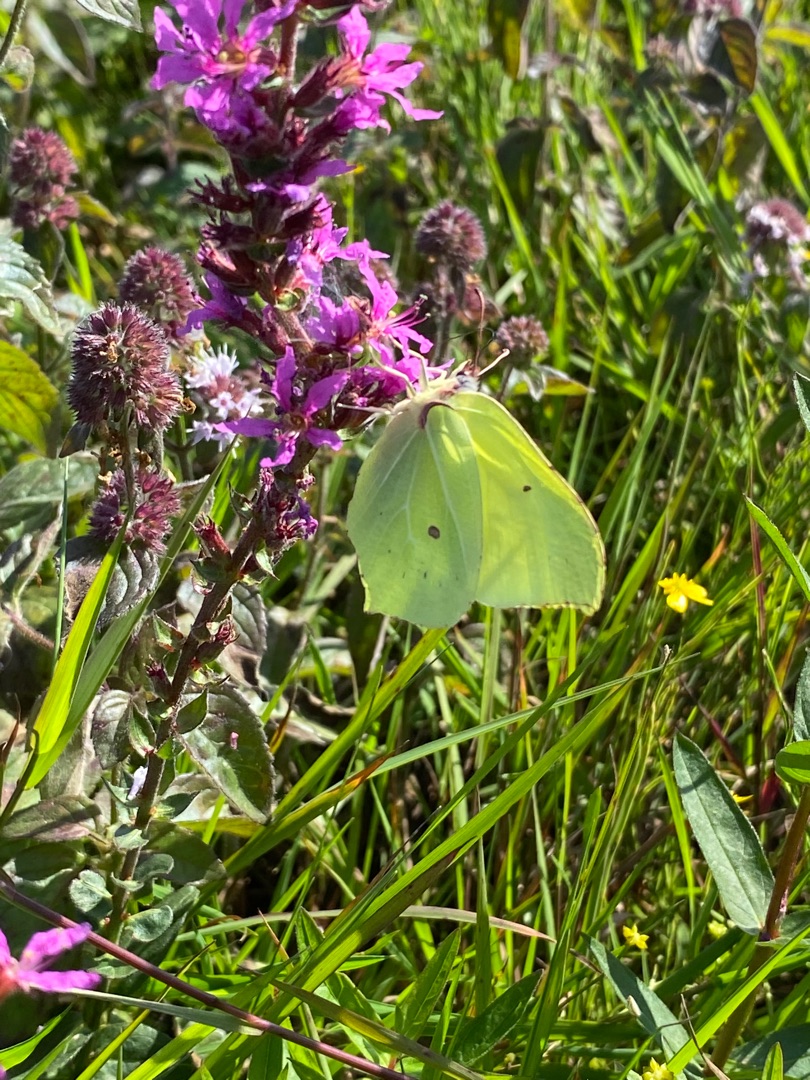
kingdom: Animalia
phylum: Arthropoda
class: Insecta
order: Lepidoptera
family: Pieridae
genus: Gonepteryx
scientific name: Gonepteryx rhamni
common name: Citronsommerfugl
